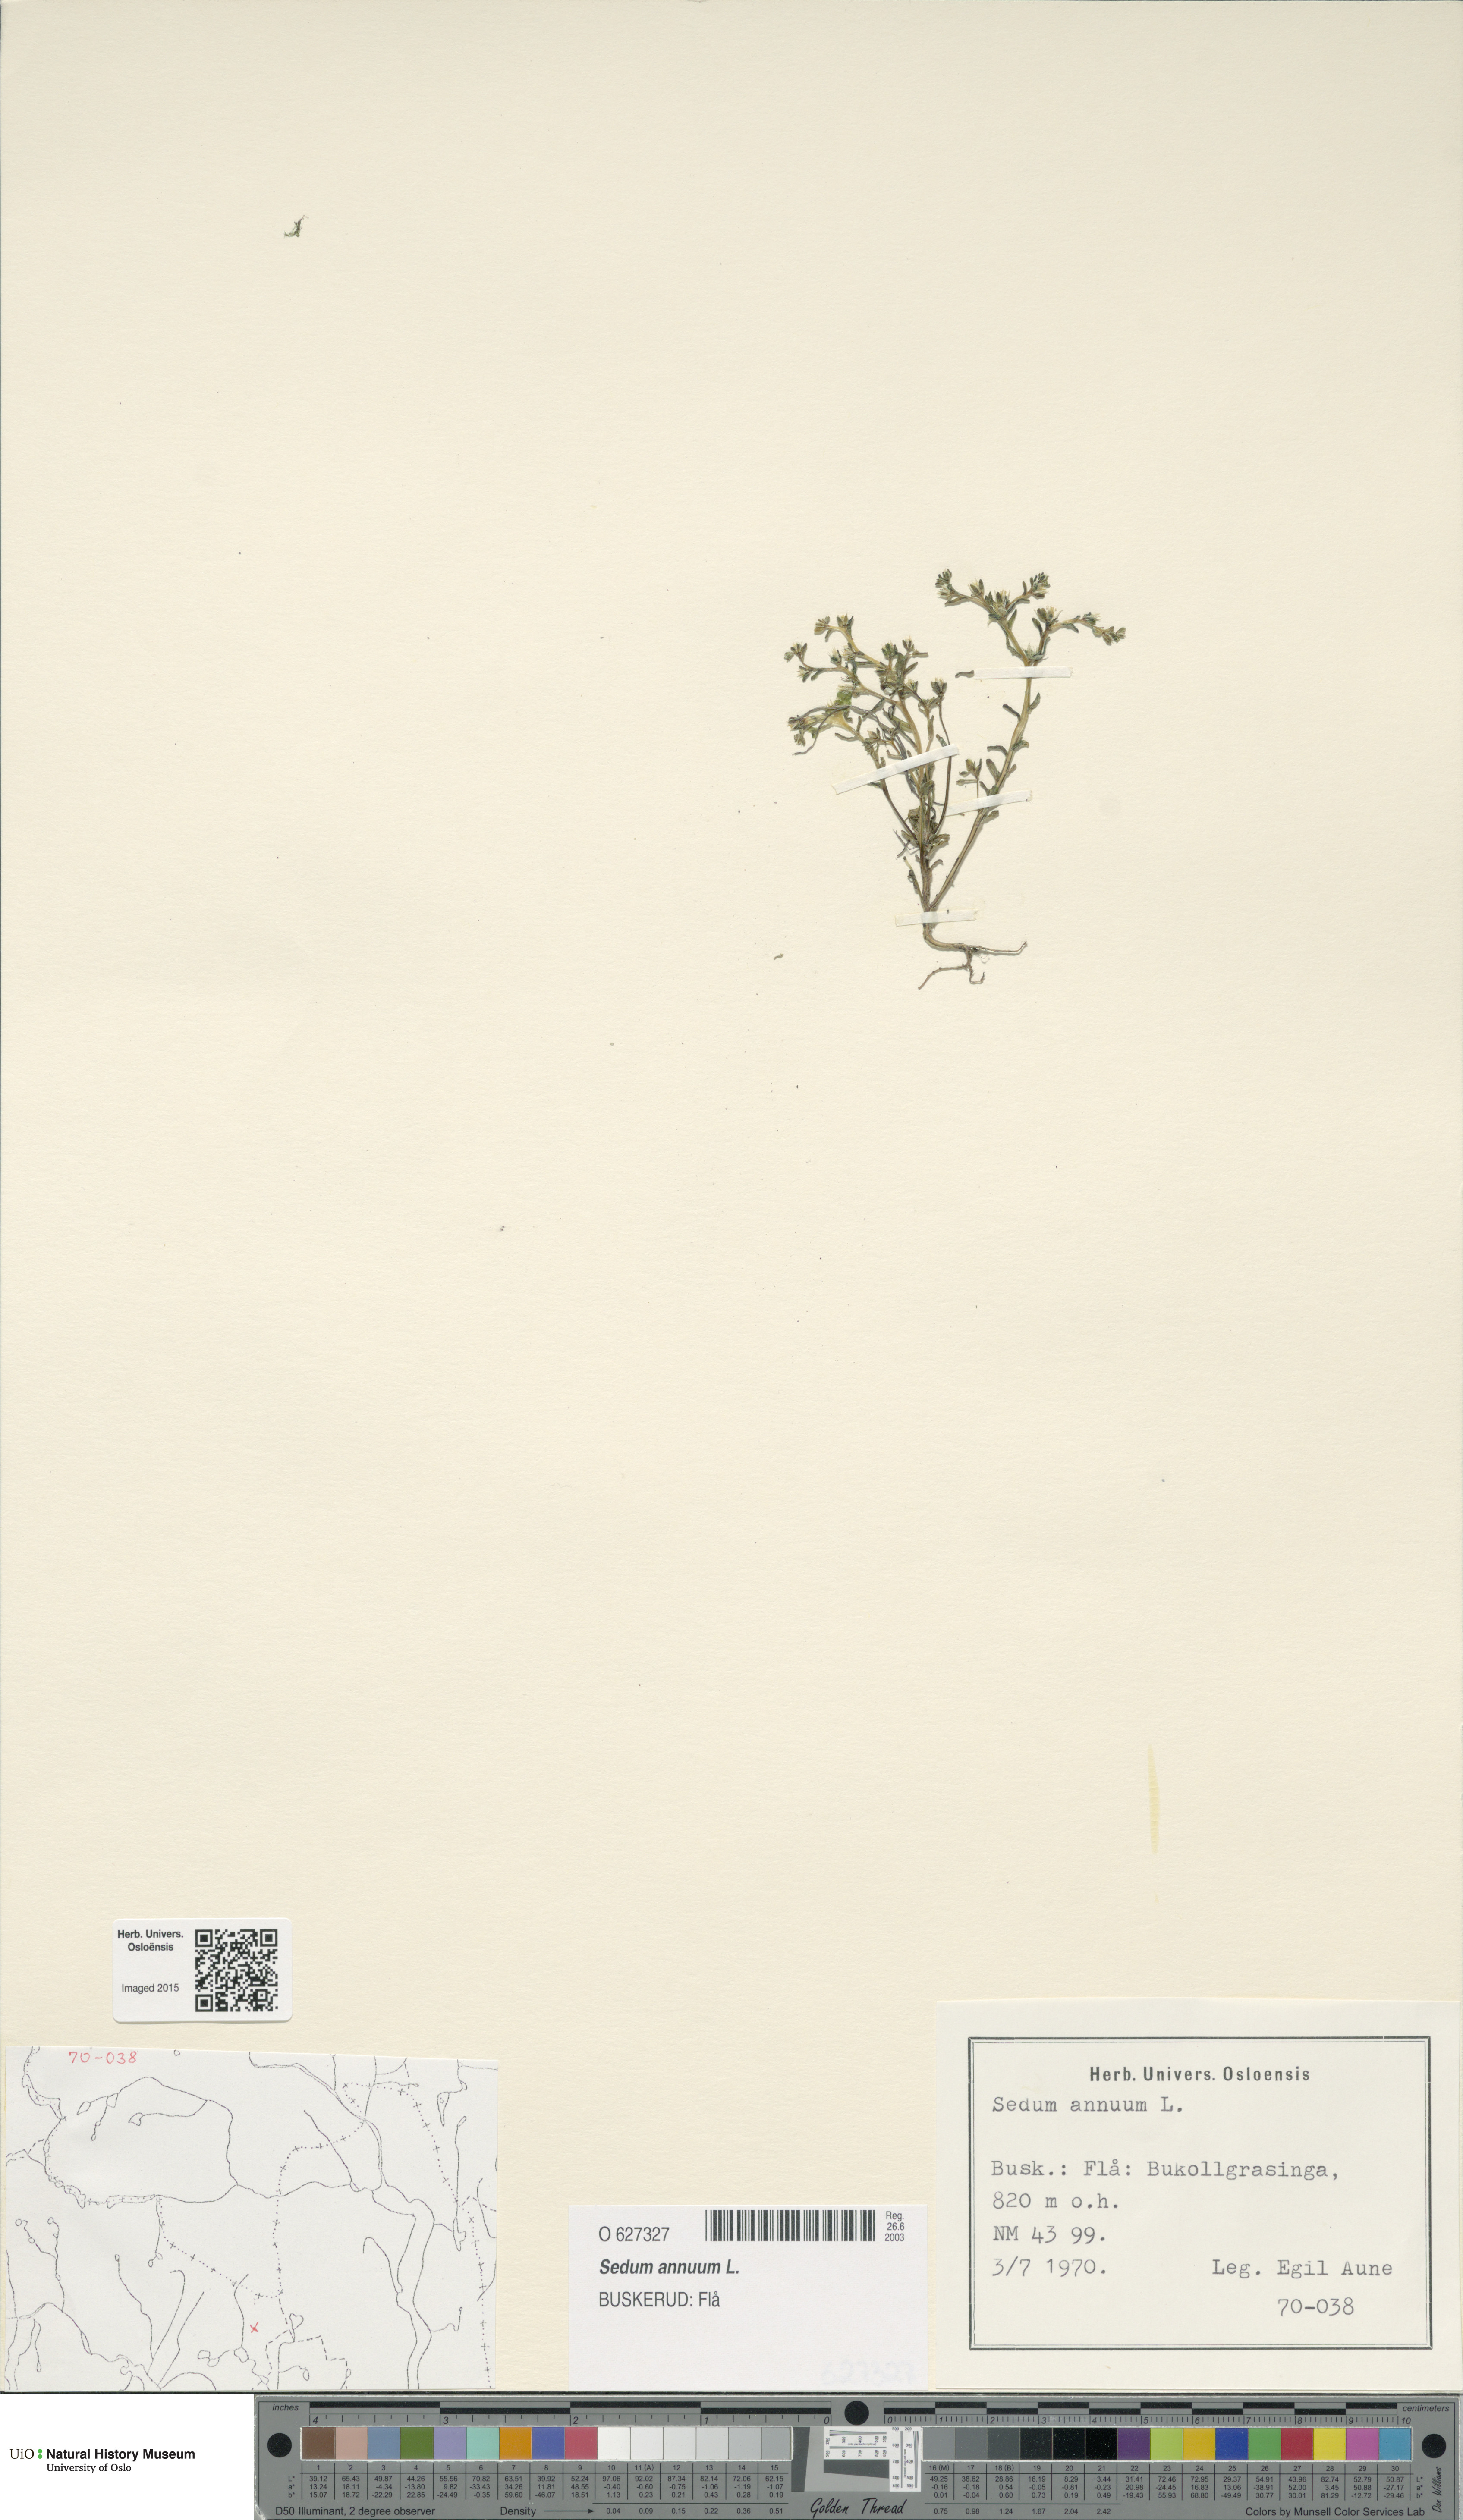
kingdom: Plantae
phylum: Tracheophyta
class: Magnoliopsida
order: Saxifragales
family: Crassulaceae
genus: Sedum
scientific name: Sedum annuum
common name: Annual stonecrop
